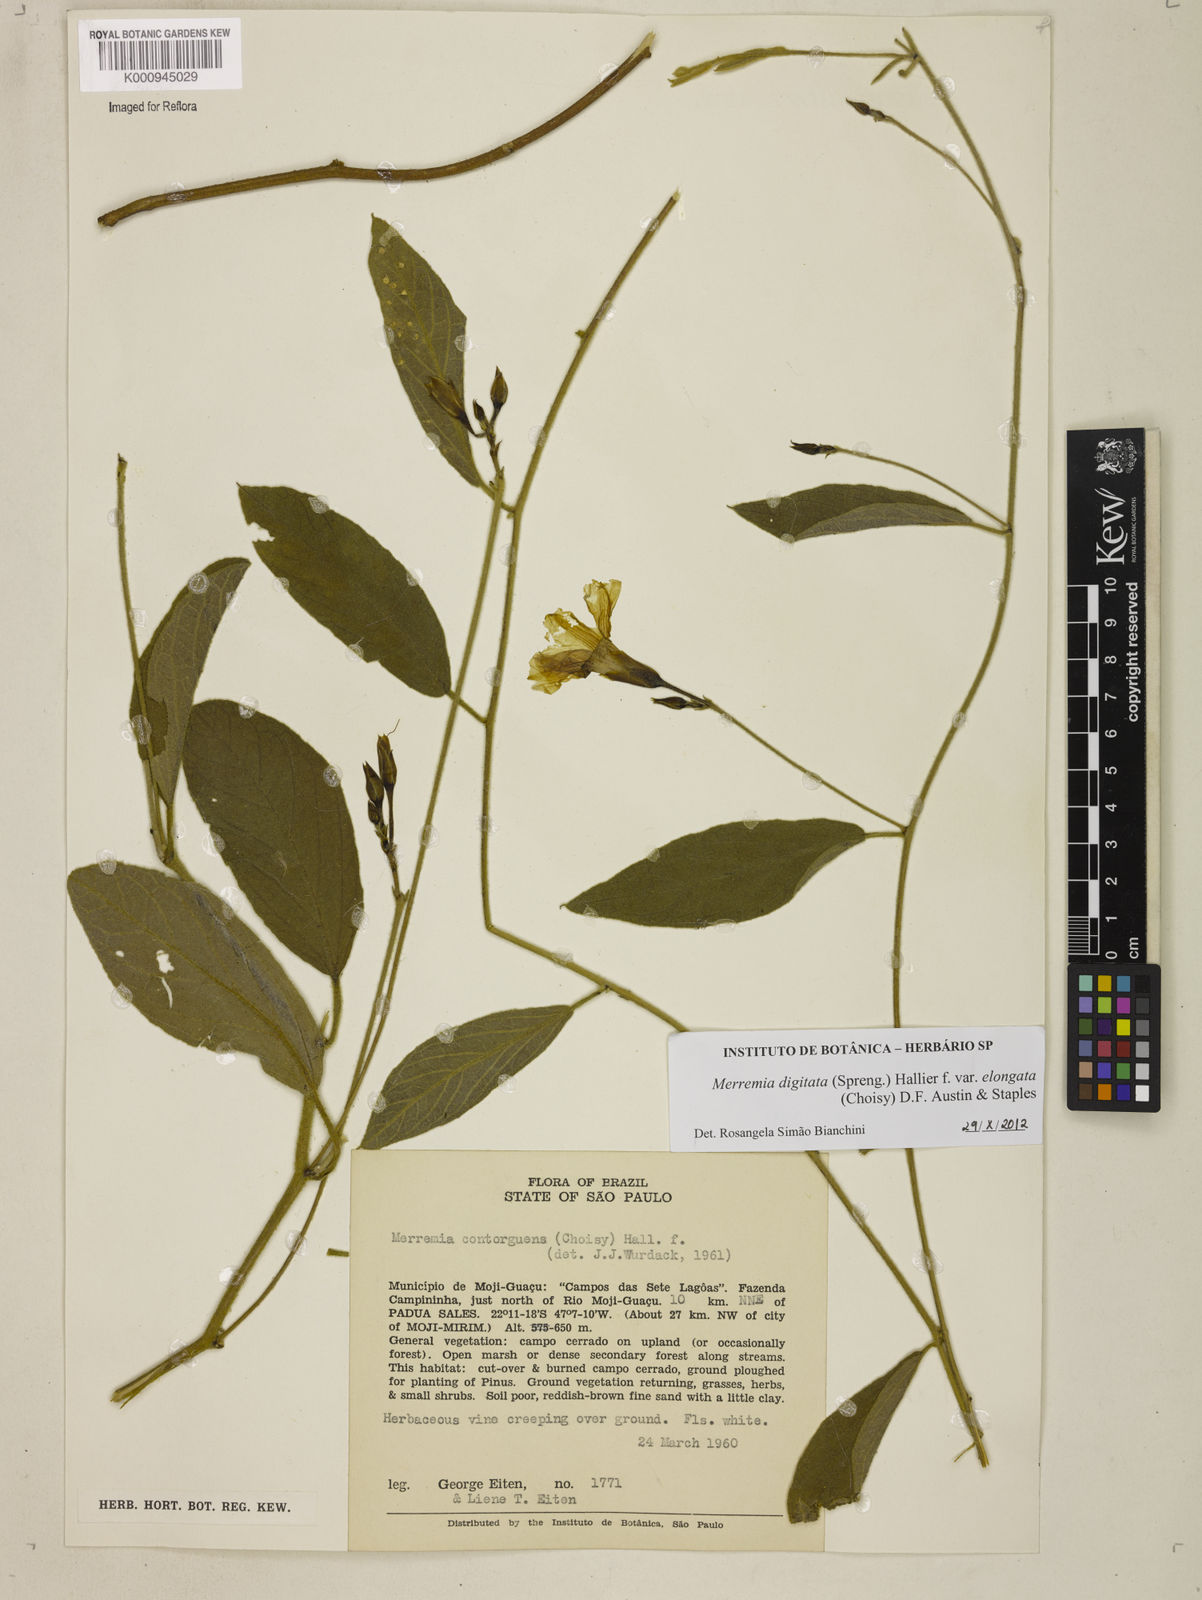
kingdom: Plantae
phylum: Tracheophyta
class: Magnoliopsida
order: Solanales
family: Convolvulaceae
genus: Distimake
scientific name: Distimake contorquens
